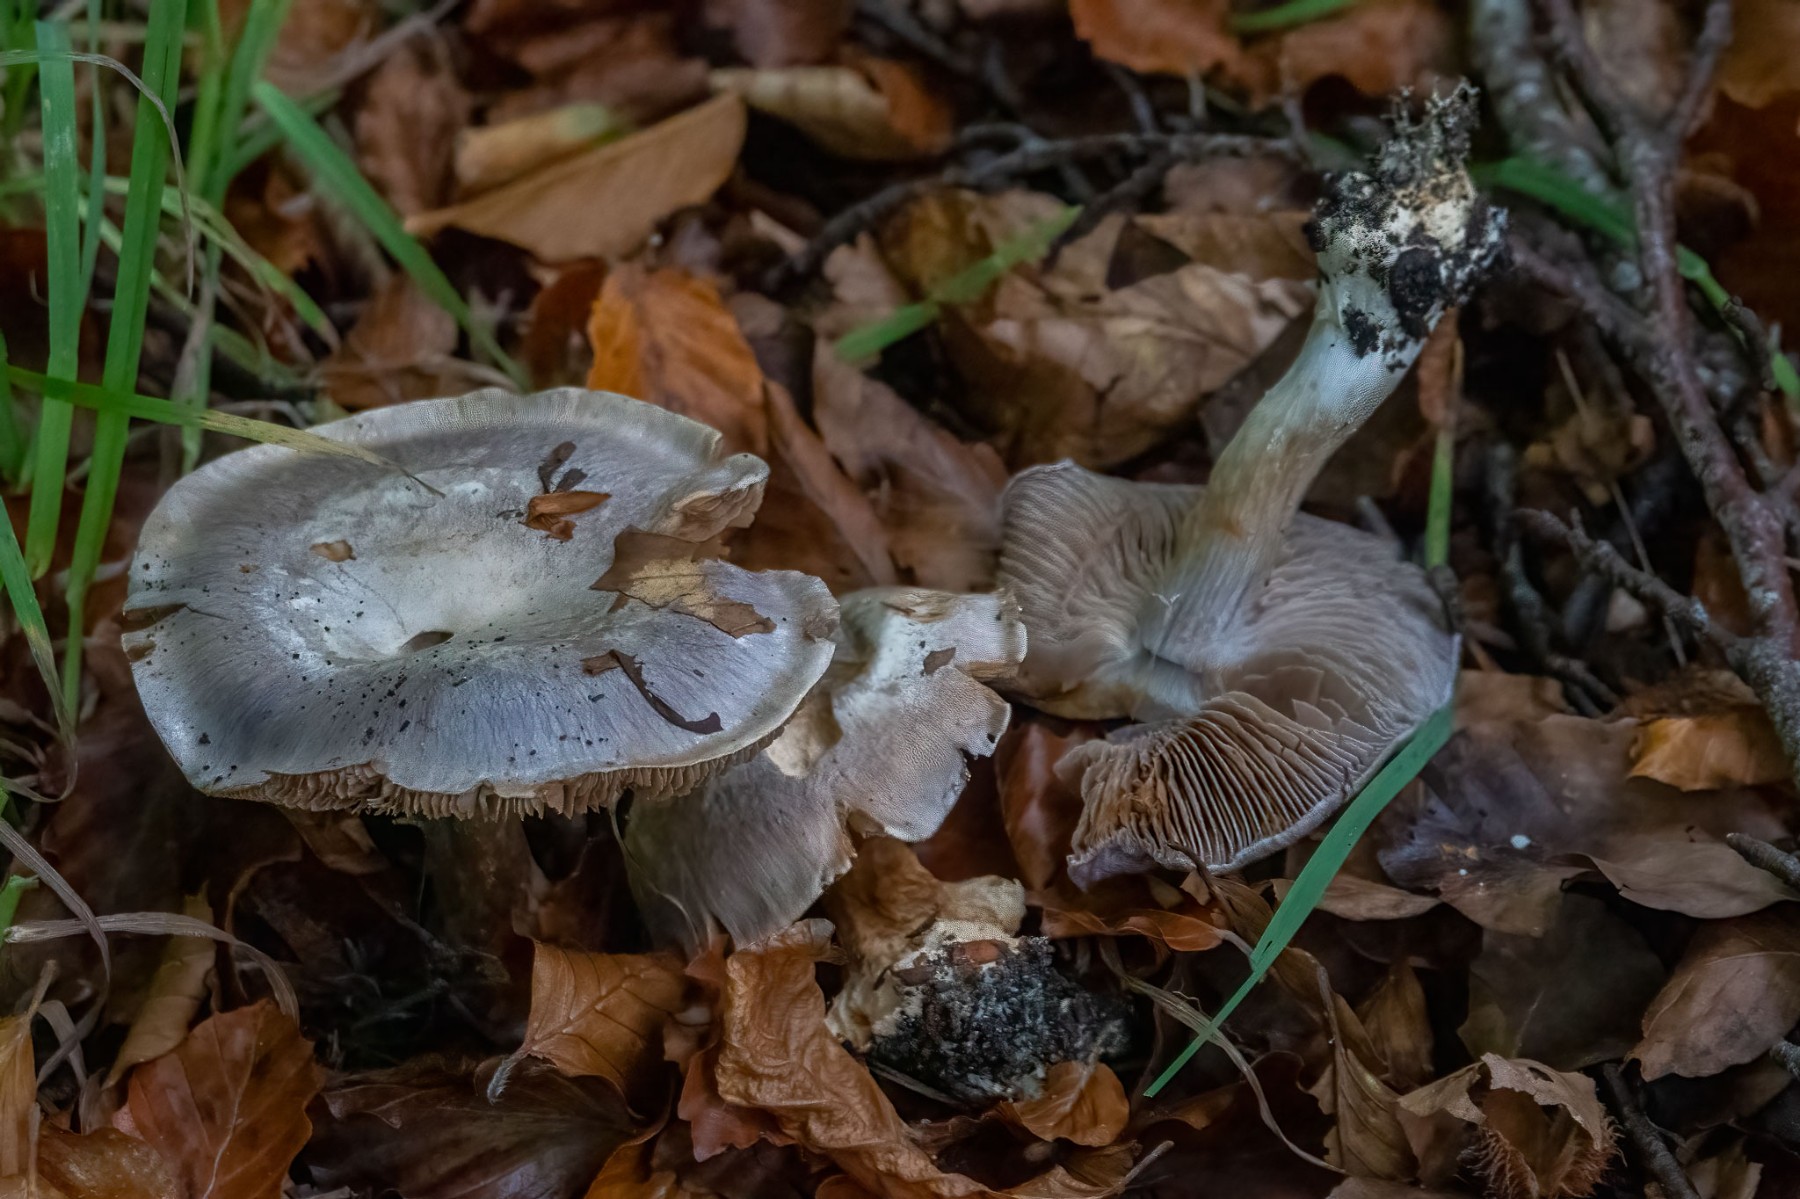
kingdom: Fungi
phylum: Basidiomycota
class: Agaricomycetes
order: Agaricales
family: Cortinariaceae
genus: Cortinarius
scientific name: Cortinarius caerulescens
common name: blåkødet slørhat
